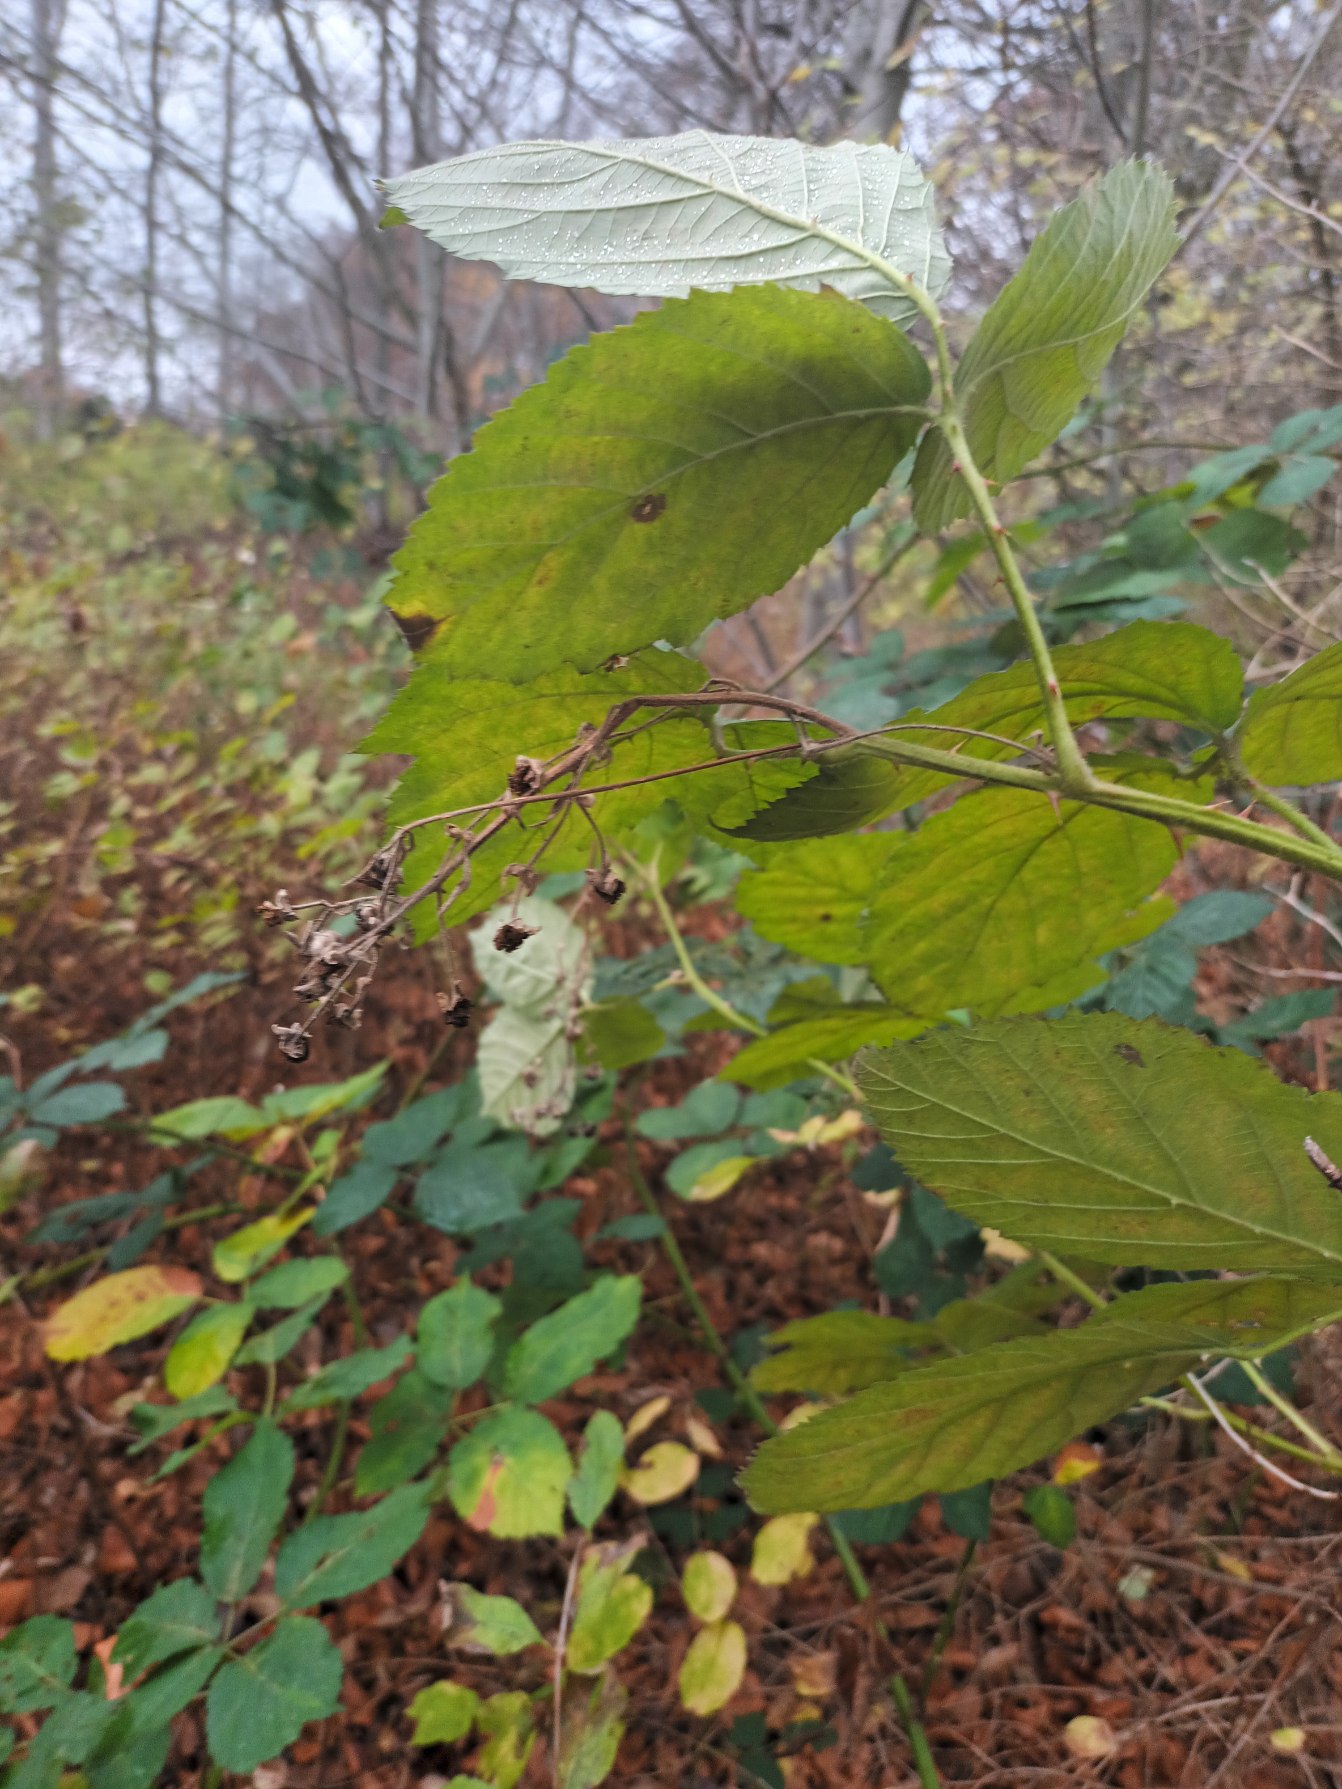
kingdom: Plantae
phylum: Tracheophyta
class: Magnoliopsida
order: Rosales
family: Rosaceae
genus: Rubus
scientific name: Rubus allegheniensis
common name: Allegheny-brombær
